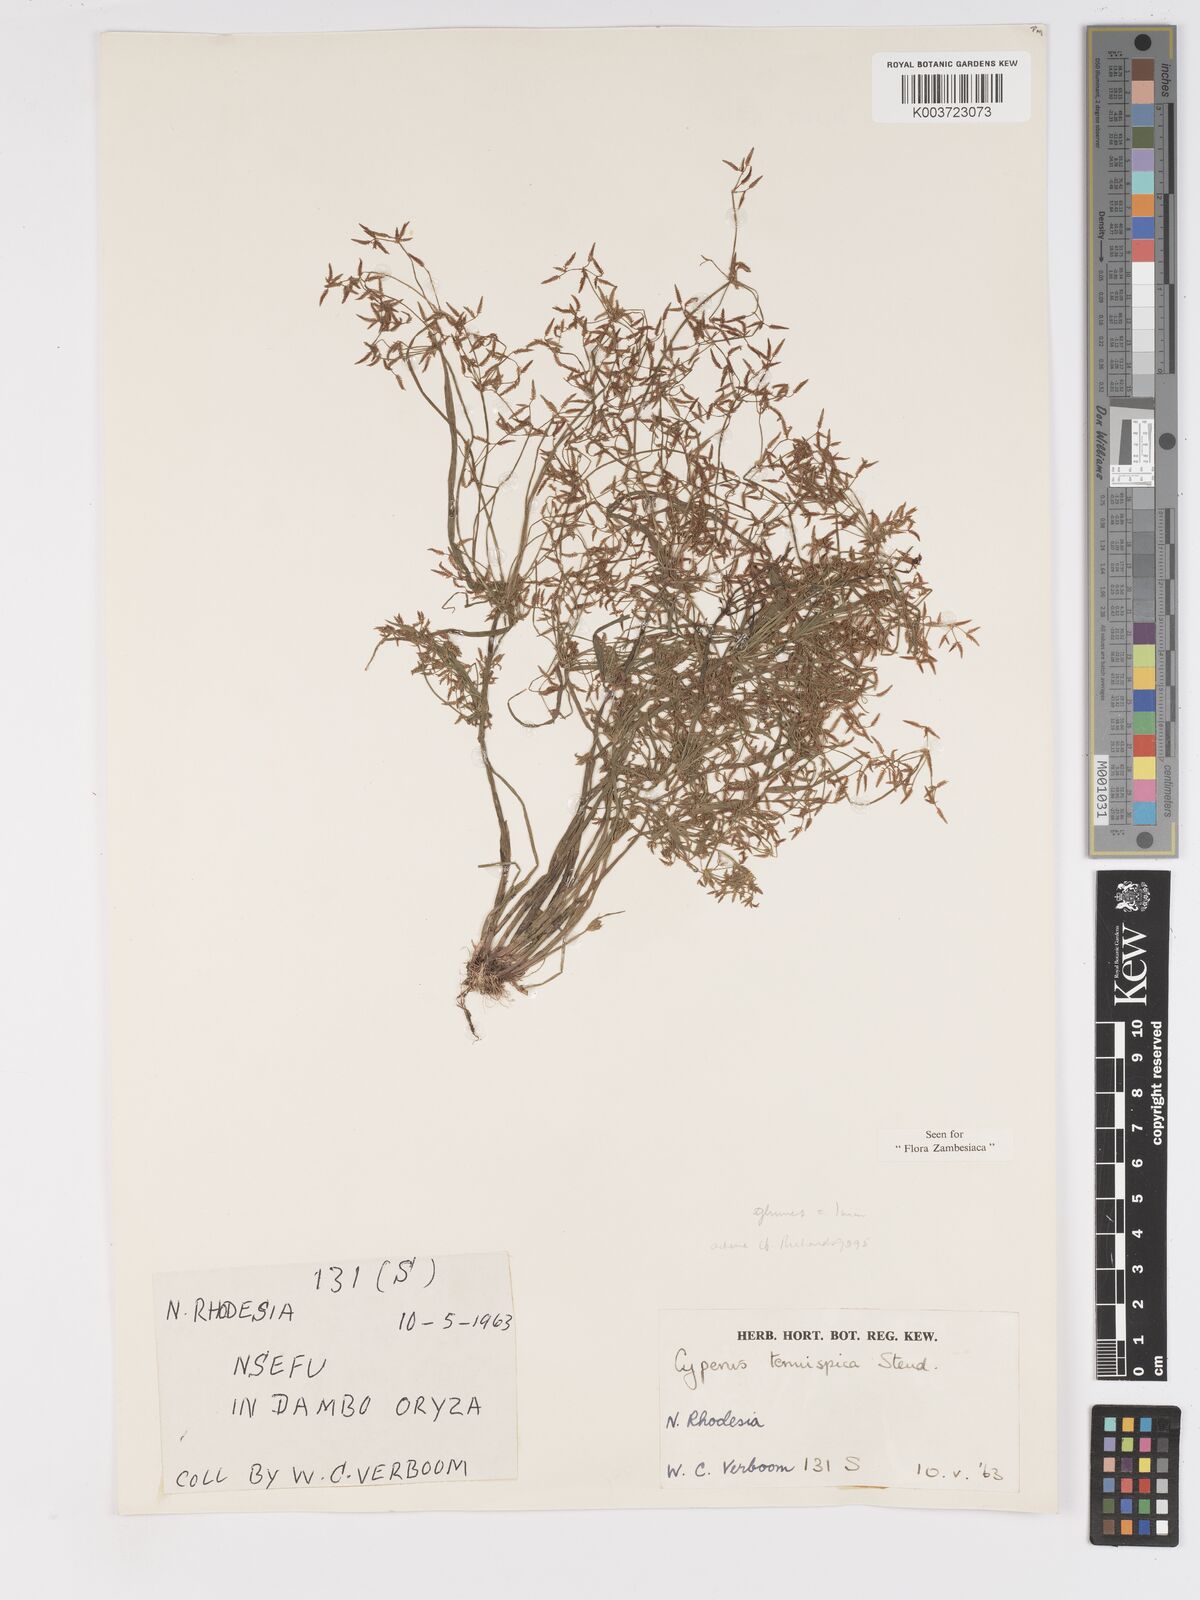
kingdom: Plantae
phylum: Tracheophyta
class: Liliopsida
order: Poales
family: Cyperaceae
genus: Cyperus
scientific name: Cyperus tenuispica
